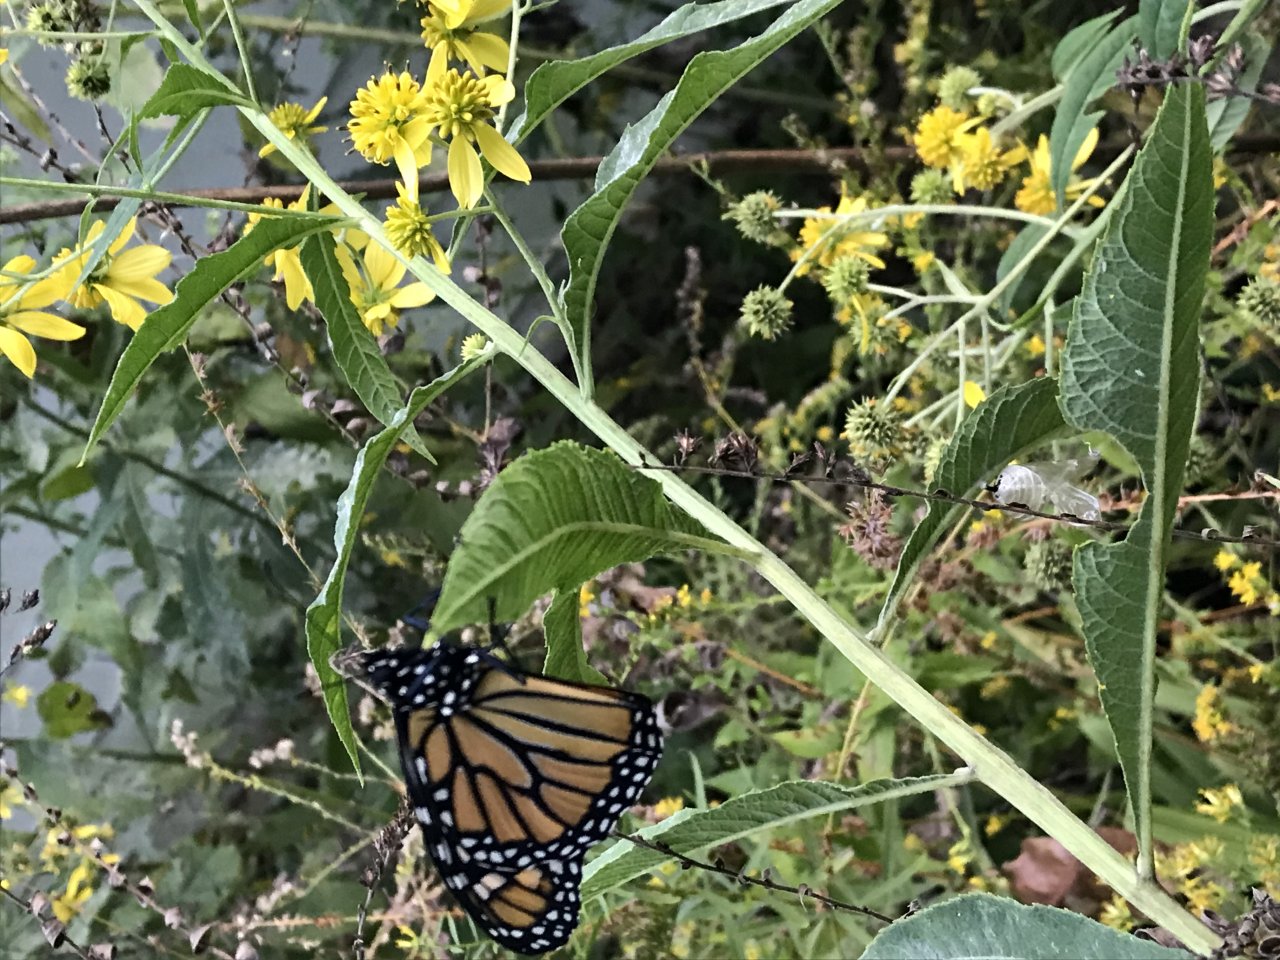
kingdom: Animalia
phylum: Arthropoda
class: Insecta
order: Lepidoptera
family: Nymphalidae
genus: Danaus
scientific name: Danaus plexippus
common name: Monarch
